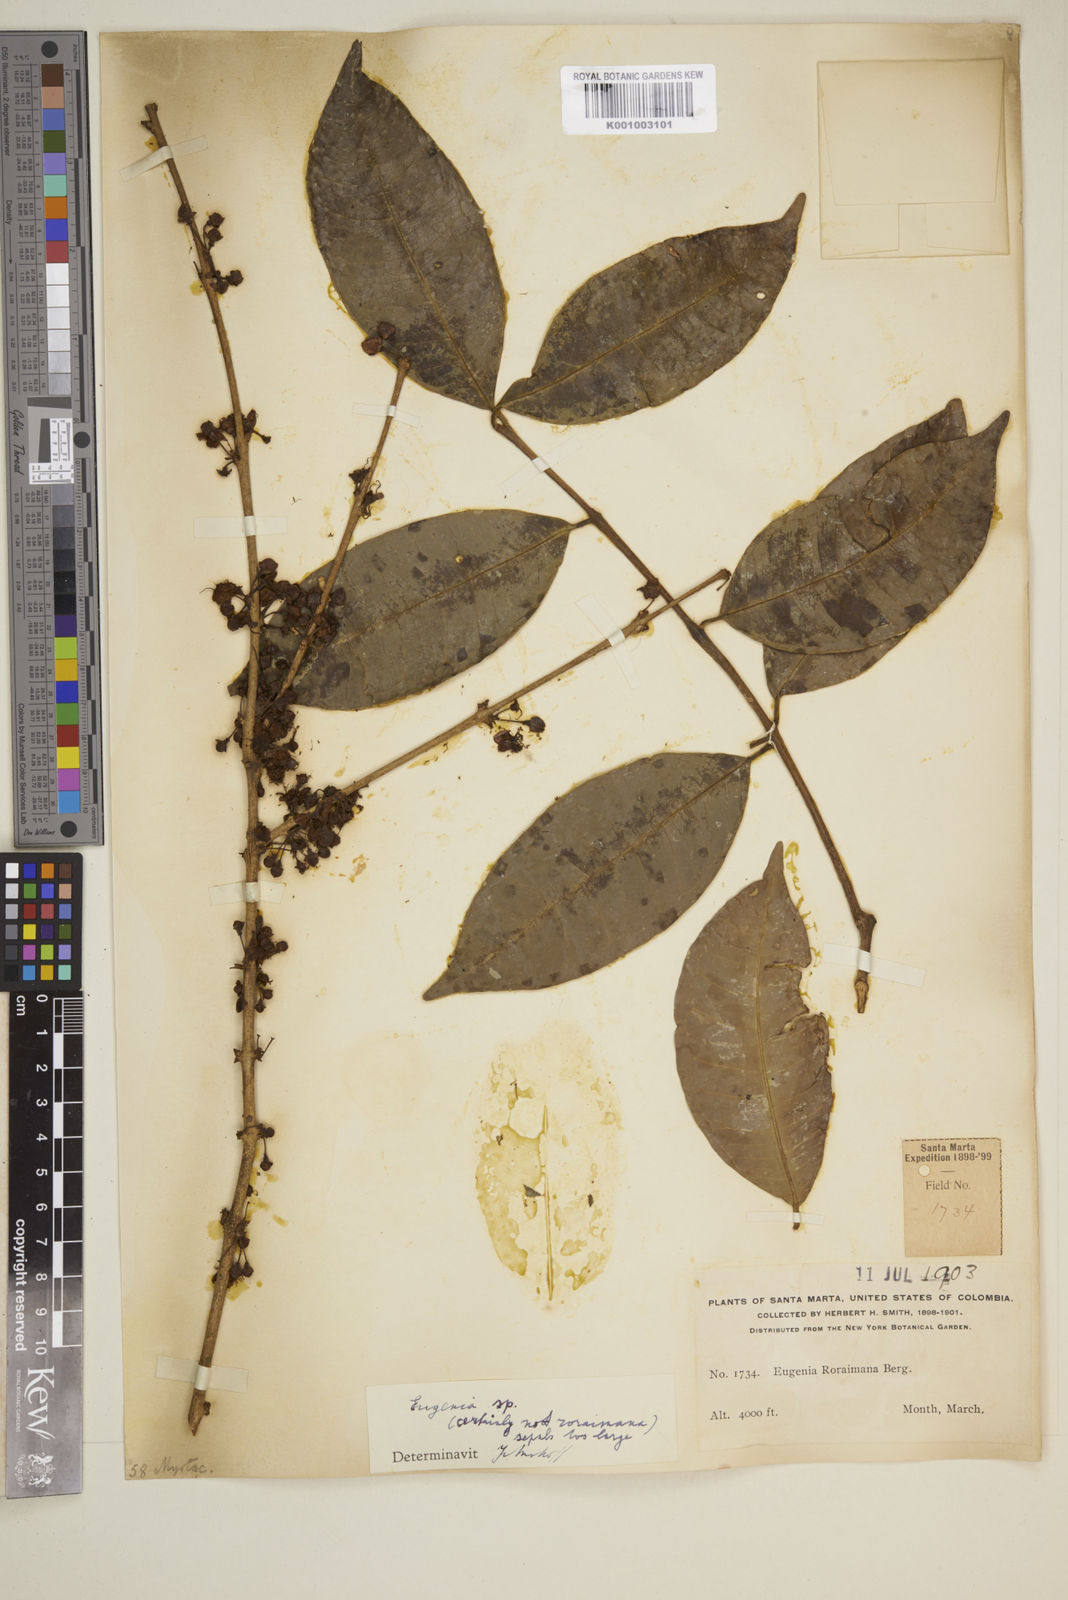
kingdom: Plantae
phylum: Tracheophyta
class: Magnoliopsida
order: Myrtales
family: Myrtaceae
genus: Eugenia
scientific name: Eugenia
